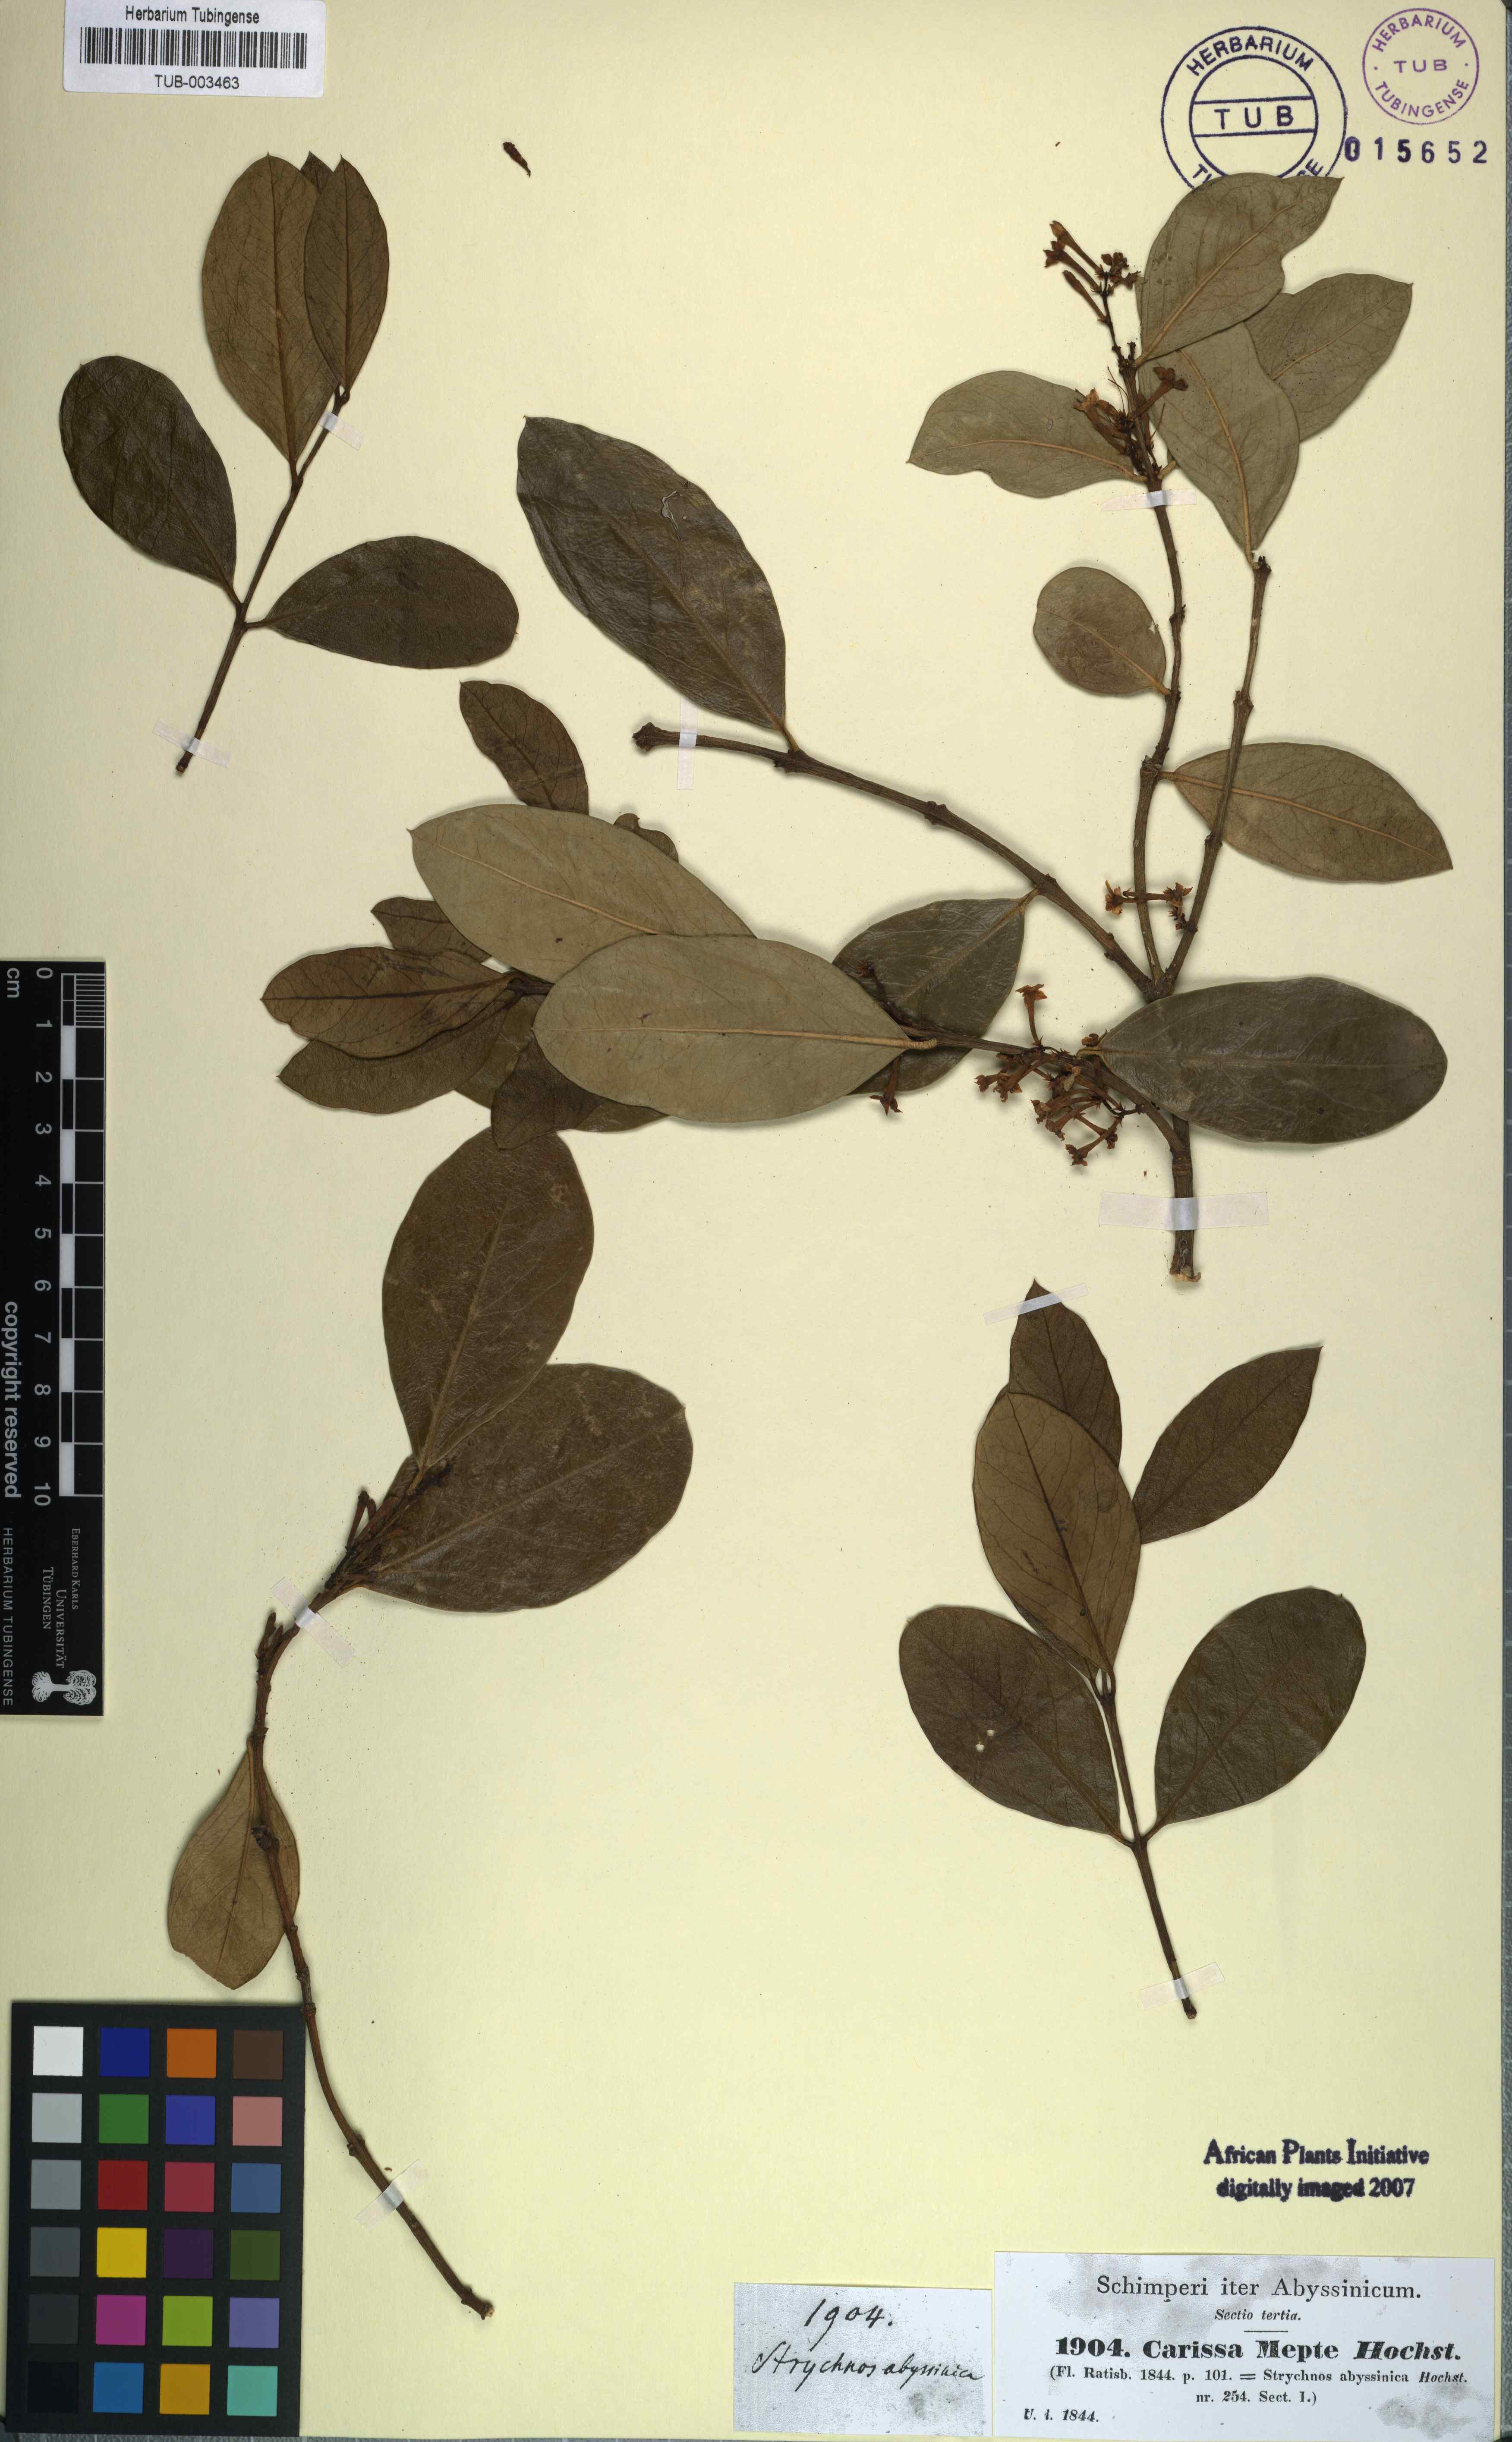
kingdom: Plantae
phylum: Tracheophyta
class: Magnoliopsida
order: Gentianales
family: Apocynaceae
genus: Carissa
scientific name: Carissa
